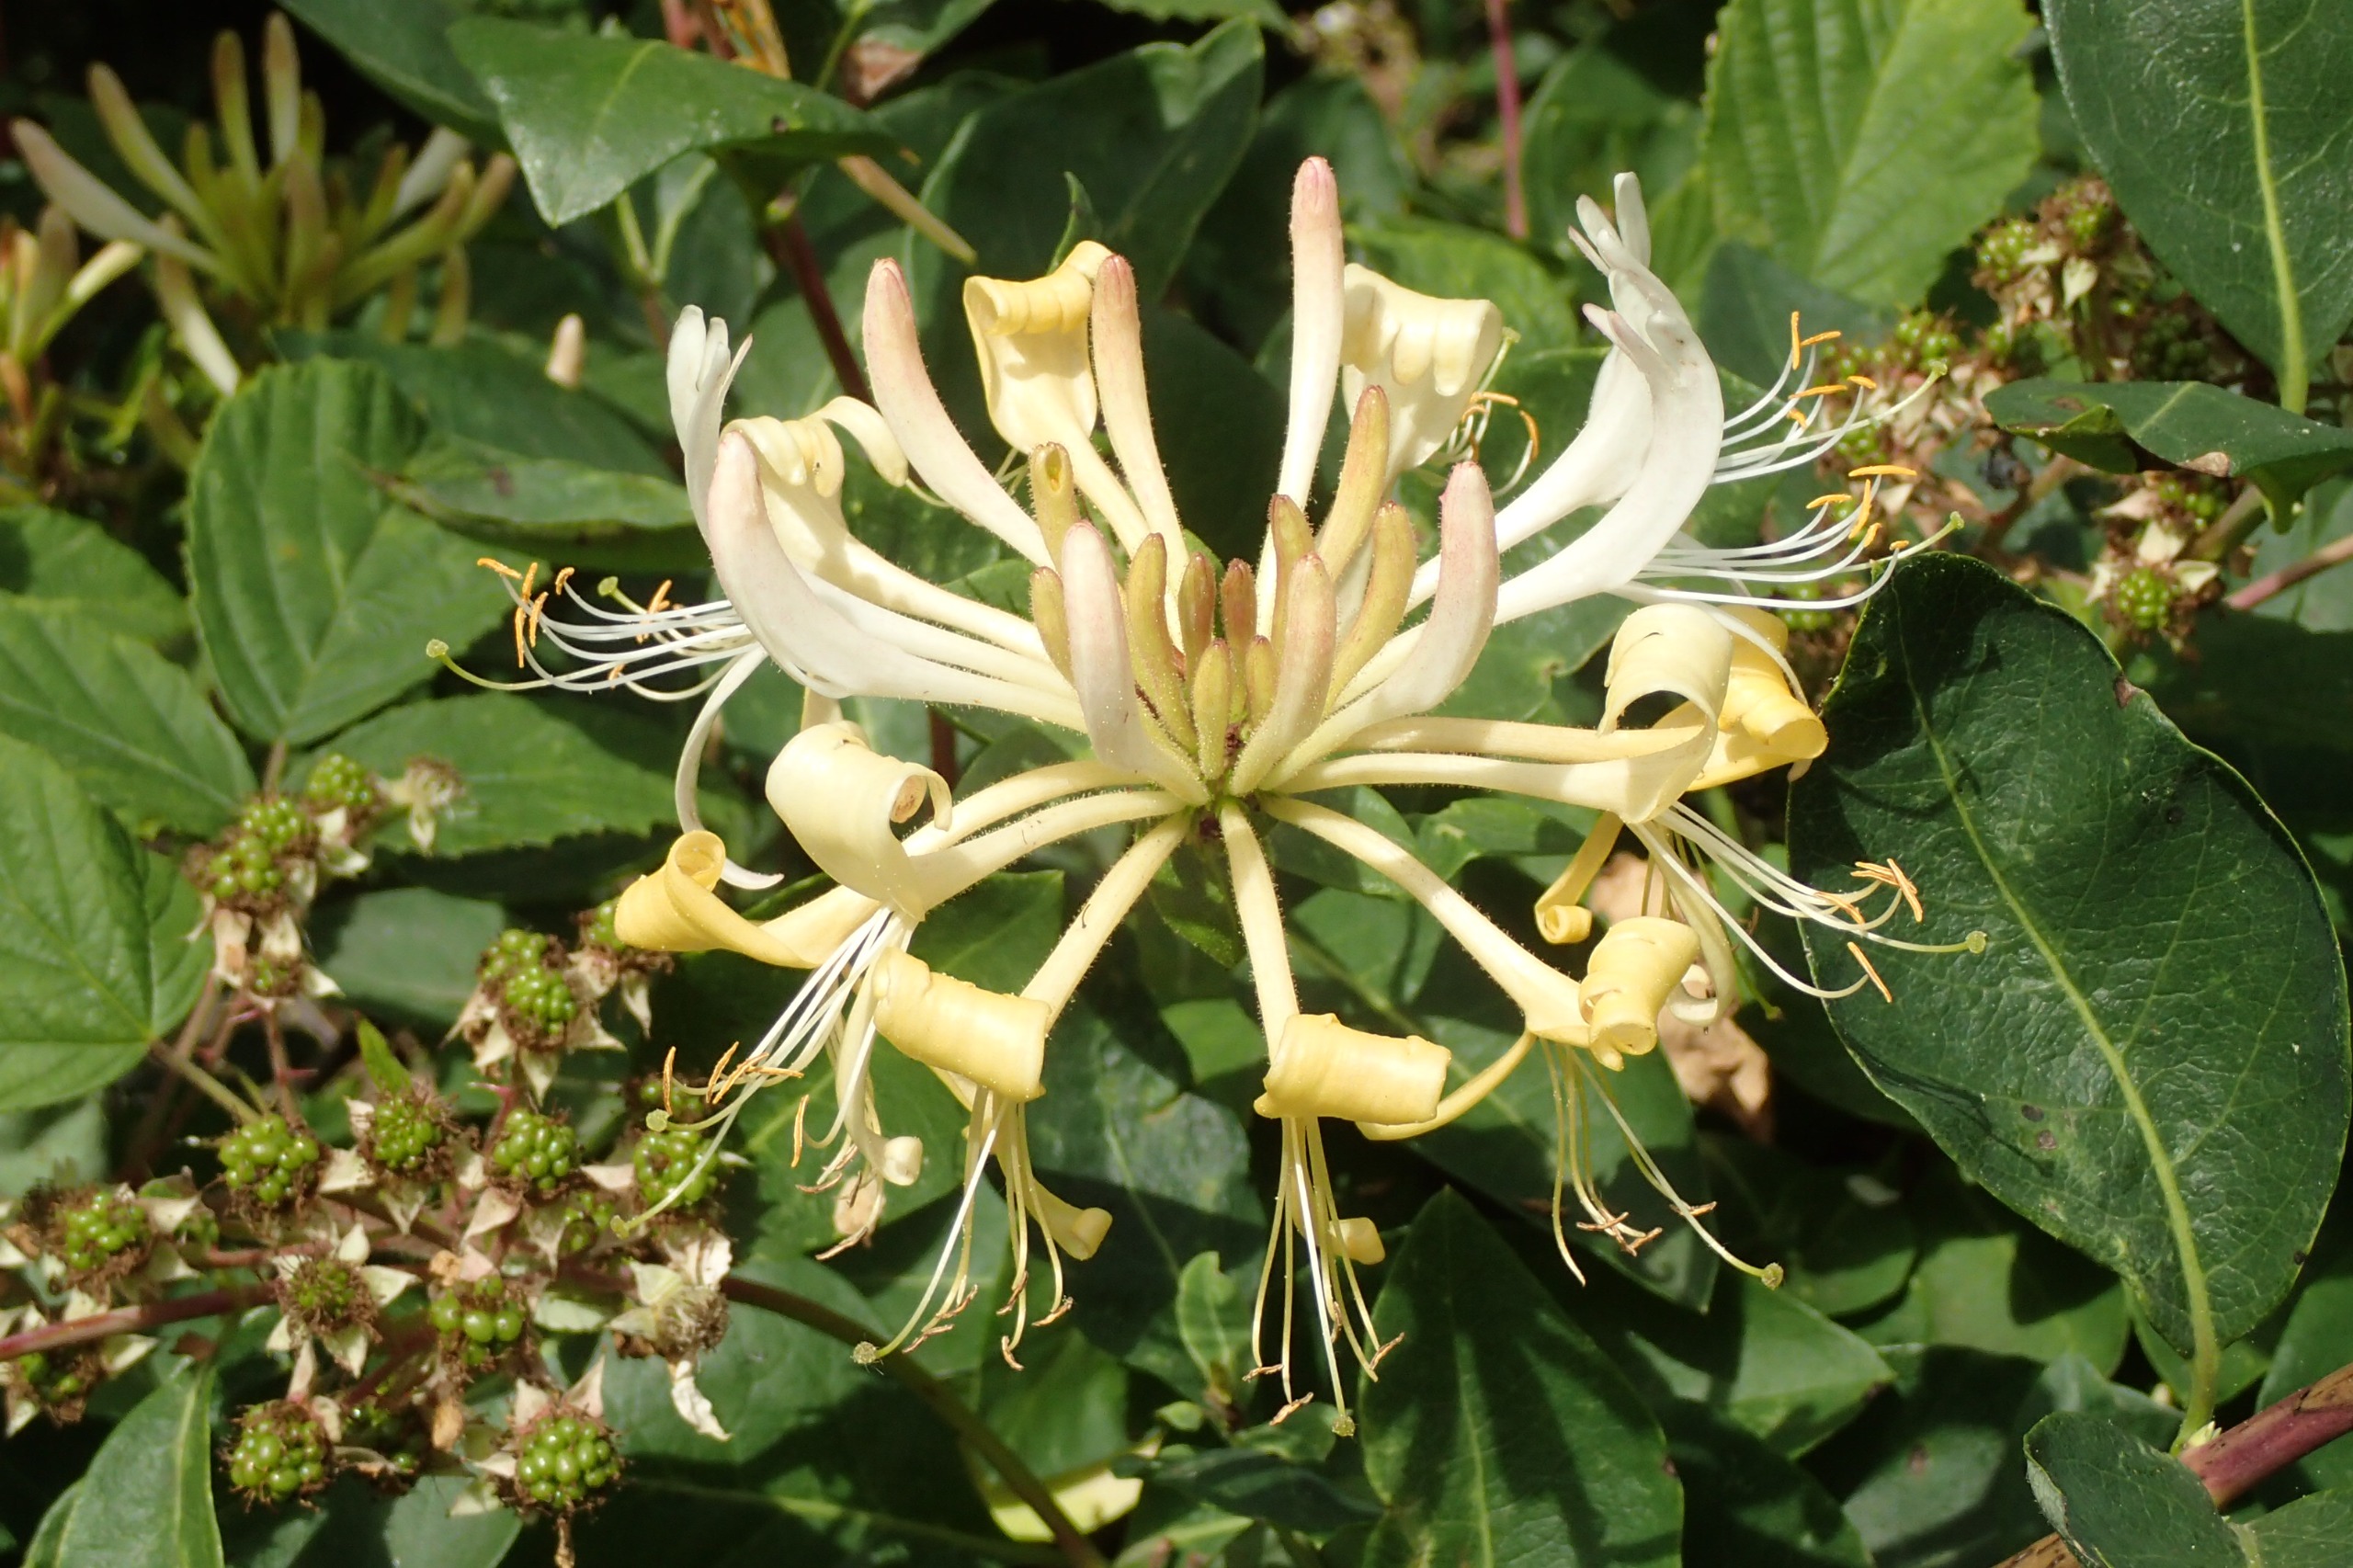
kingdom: Plantae
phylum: Tracheophyta
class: Magnoliopsida
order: Dipsacales
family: Caprifoliaceae
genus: Lonicera
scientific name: Lonicera periclymenum
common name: Almindelig gedeblad
